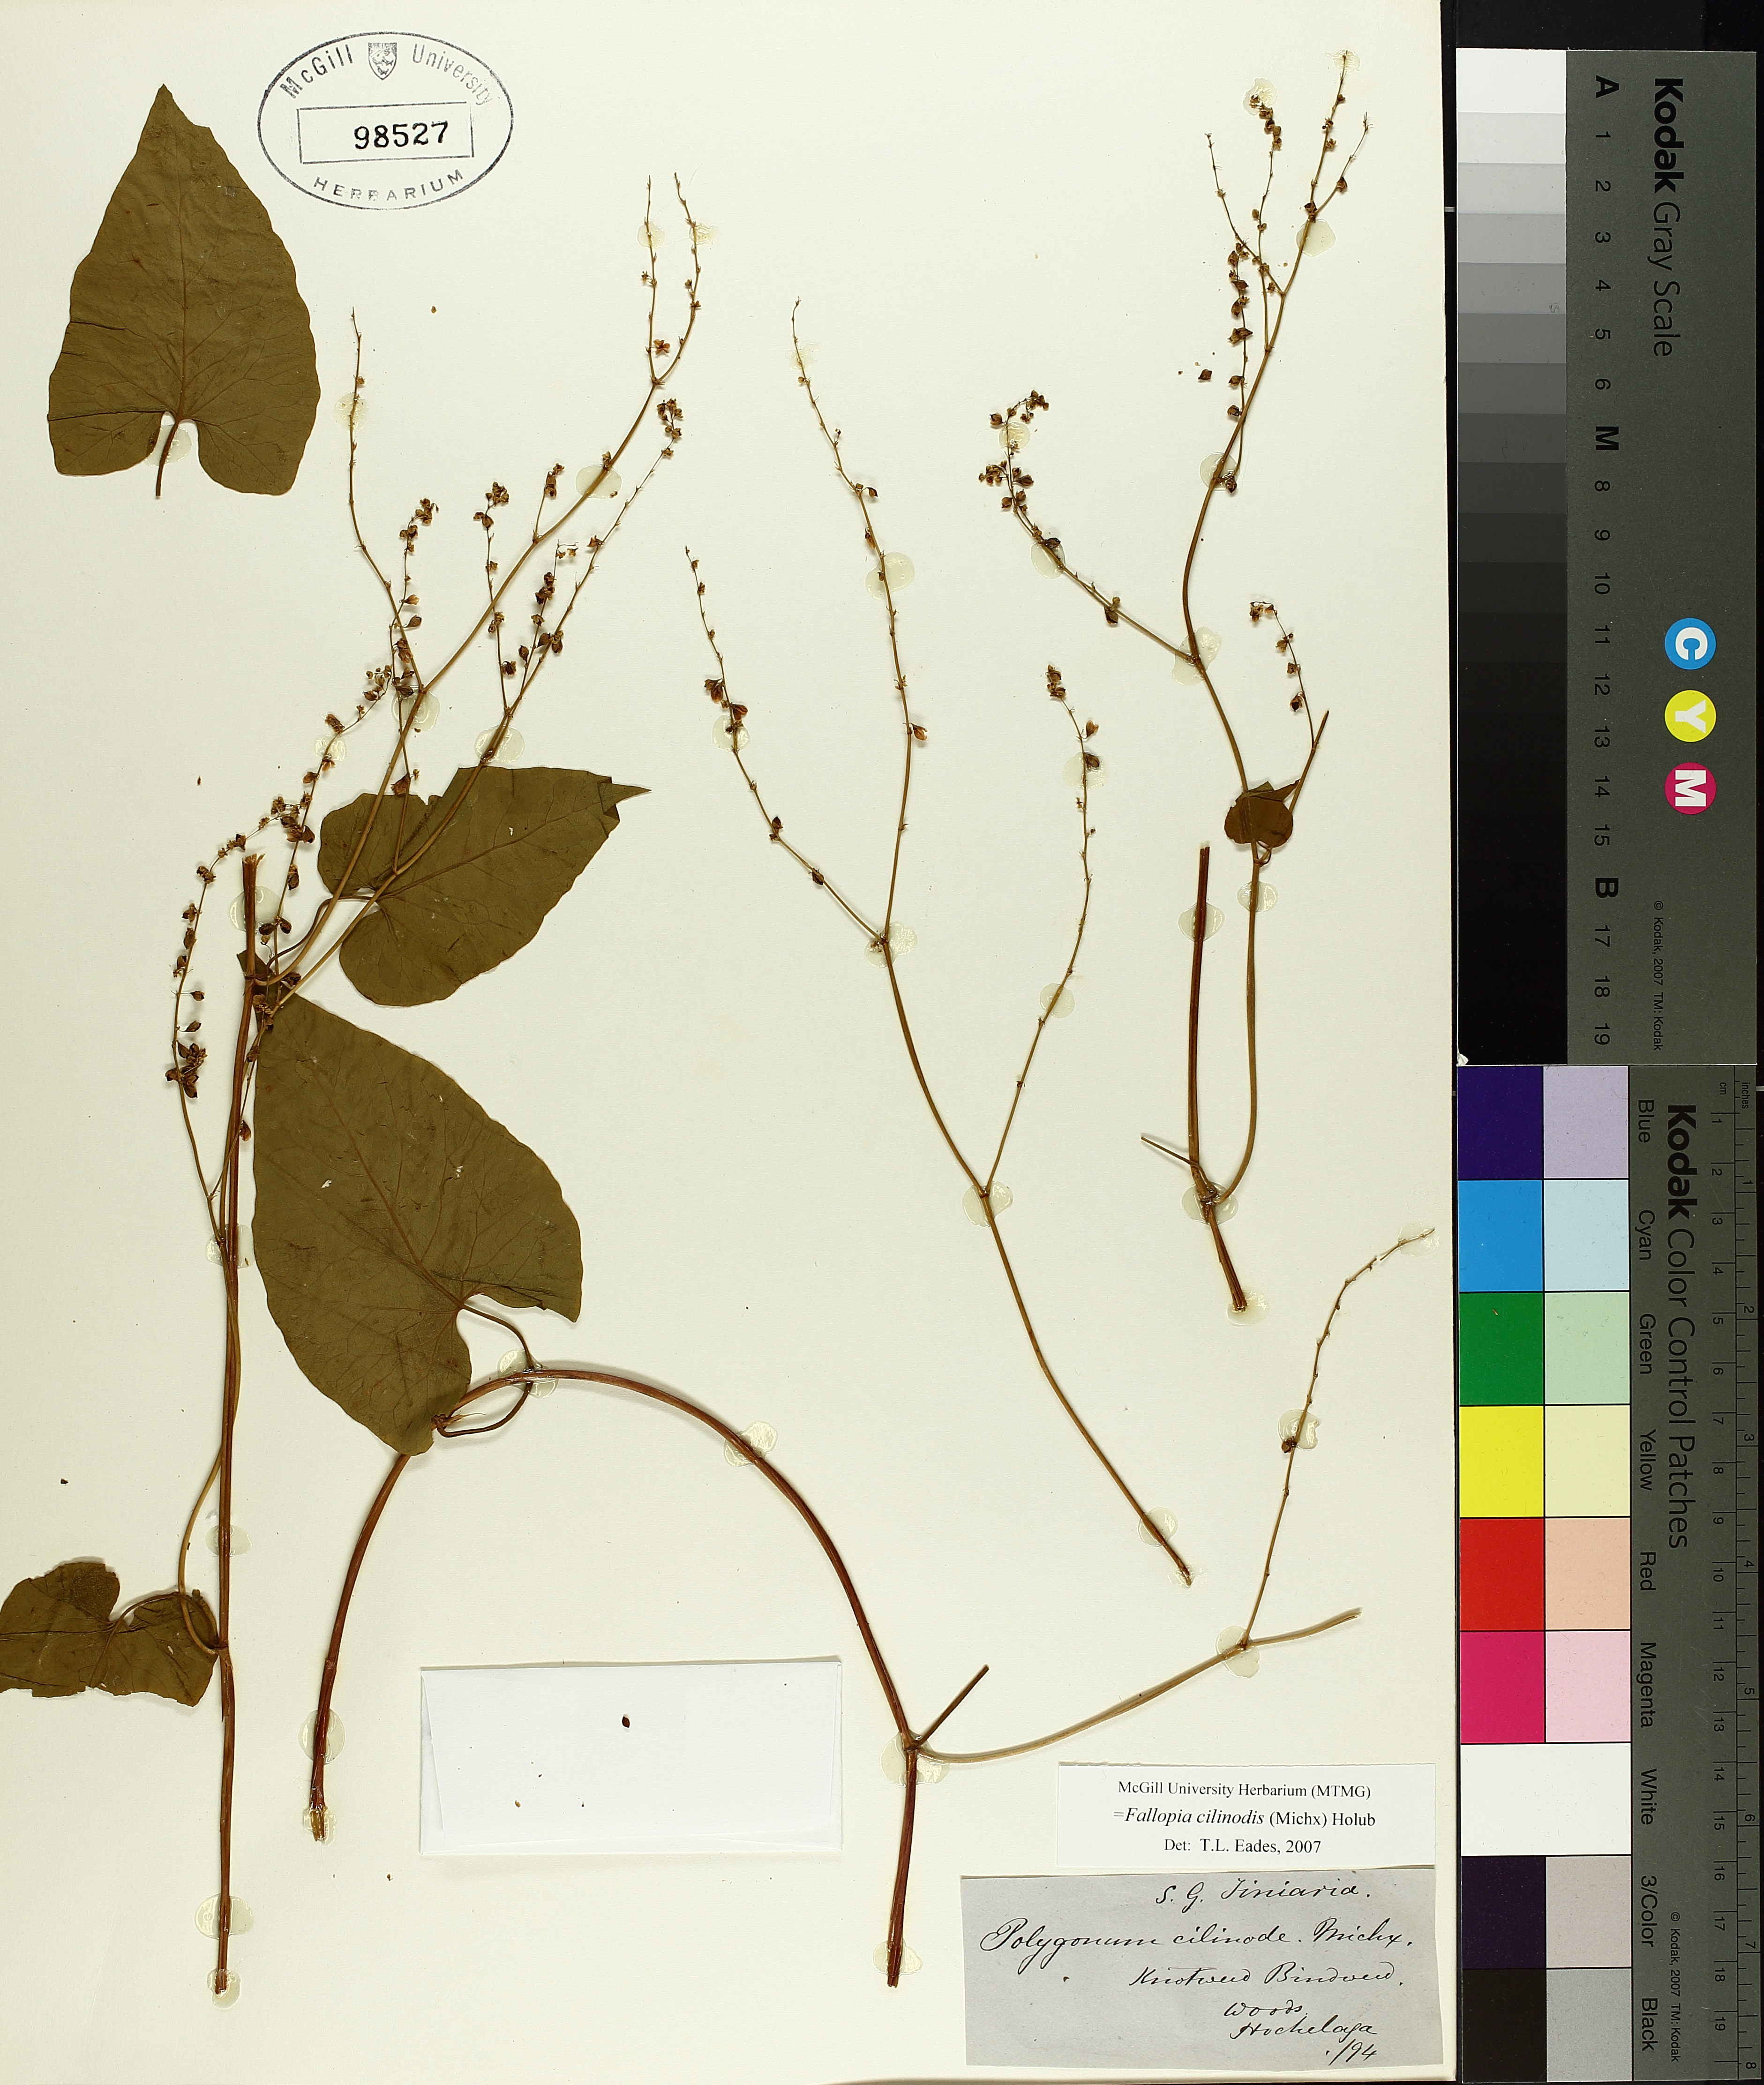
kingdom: Plantae
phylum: Tracheophyta
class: Magnoliopsida
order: Caryophyllales
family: Polygonaceae
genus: Parogonum
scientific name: Parogonum ciliinode
